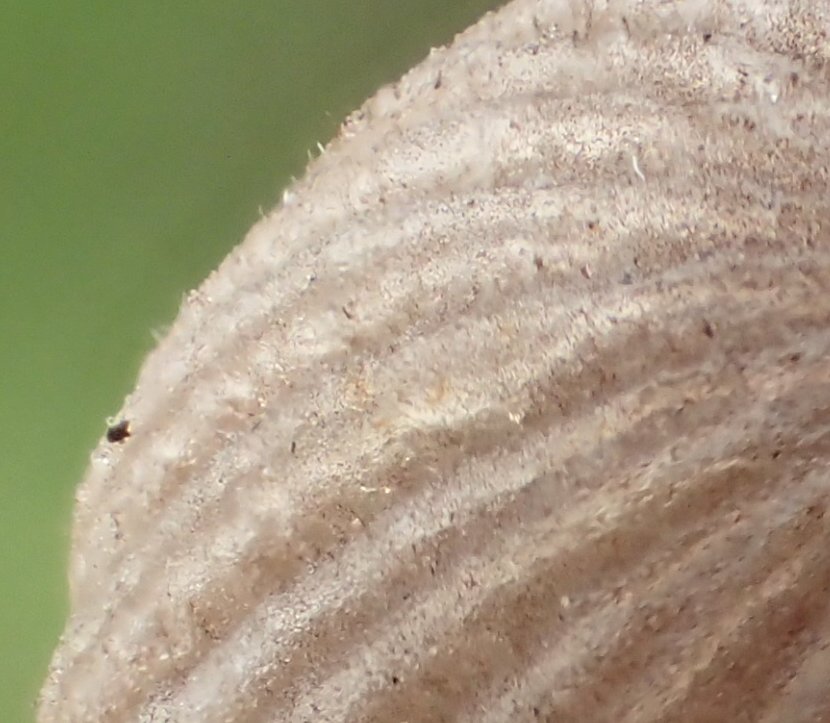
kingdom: Fungi
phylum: Basidiomycota
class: Agaricomycetes
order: Agaricales
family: Psathyrellaceae
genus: Coprinellus
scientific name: Coprinellus
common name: blækhat
